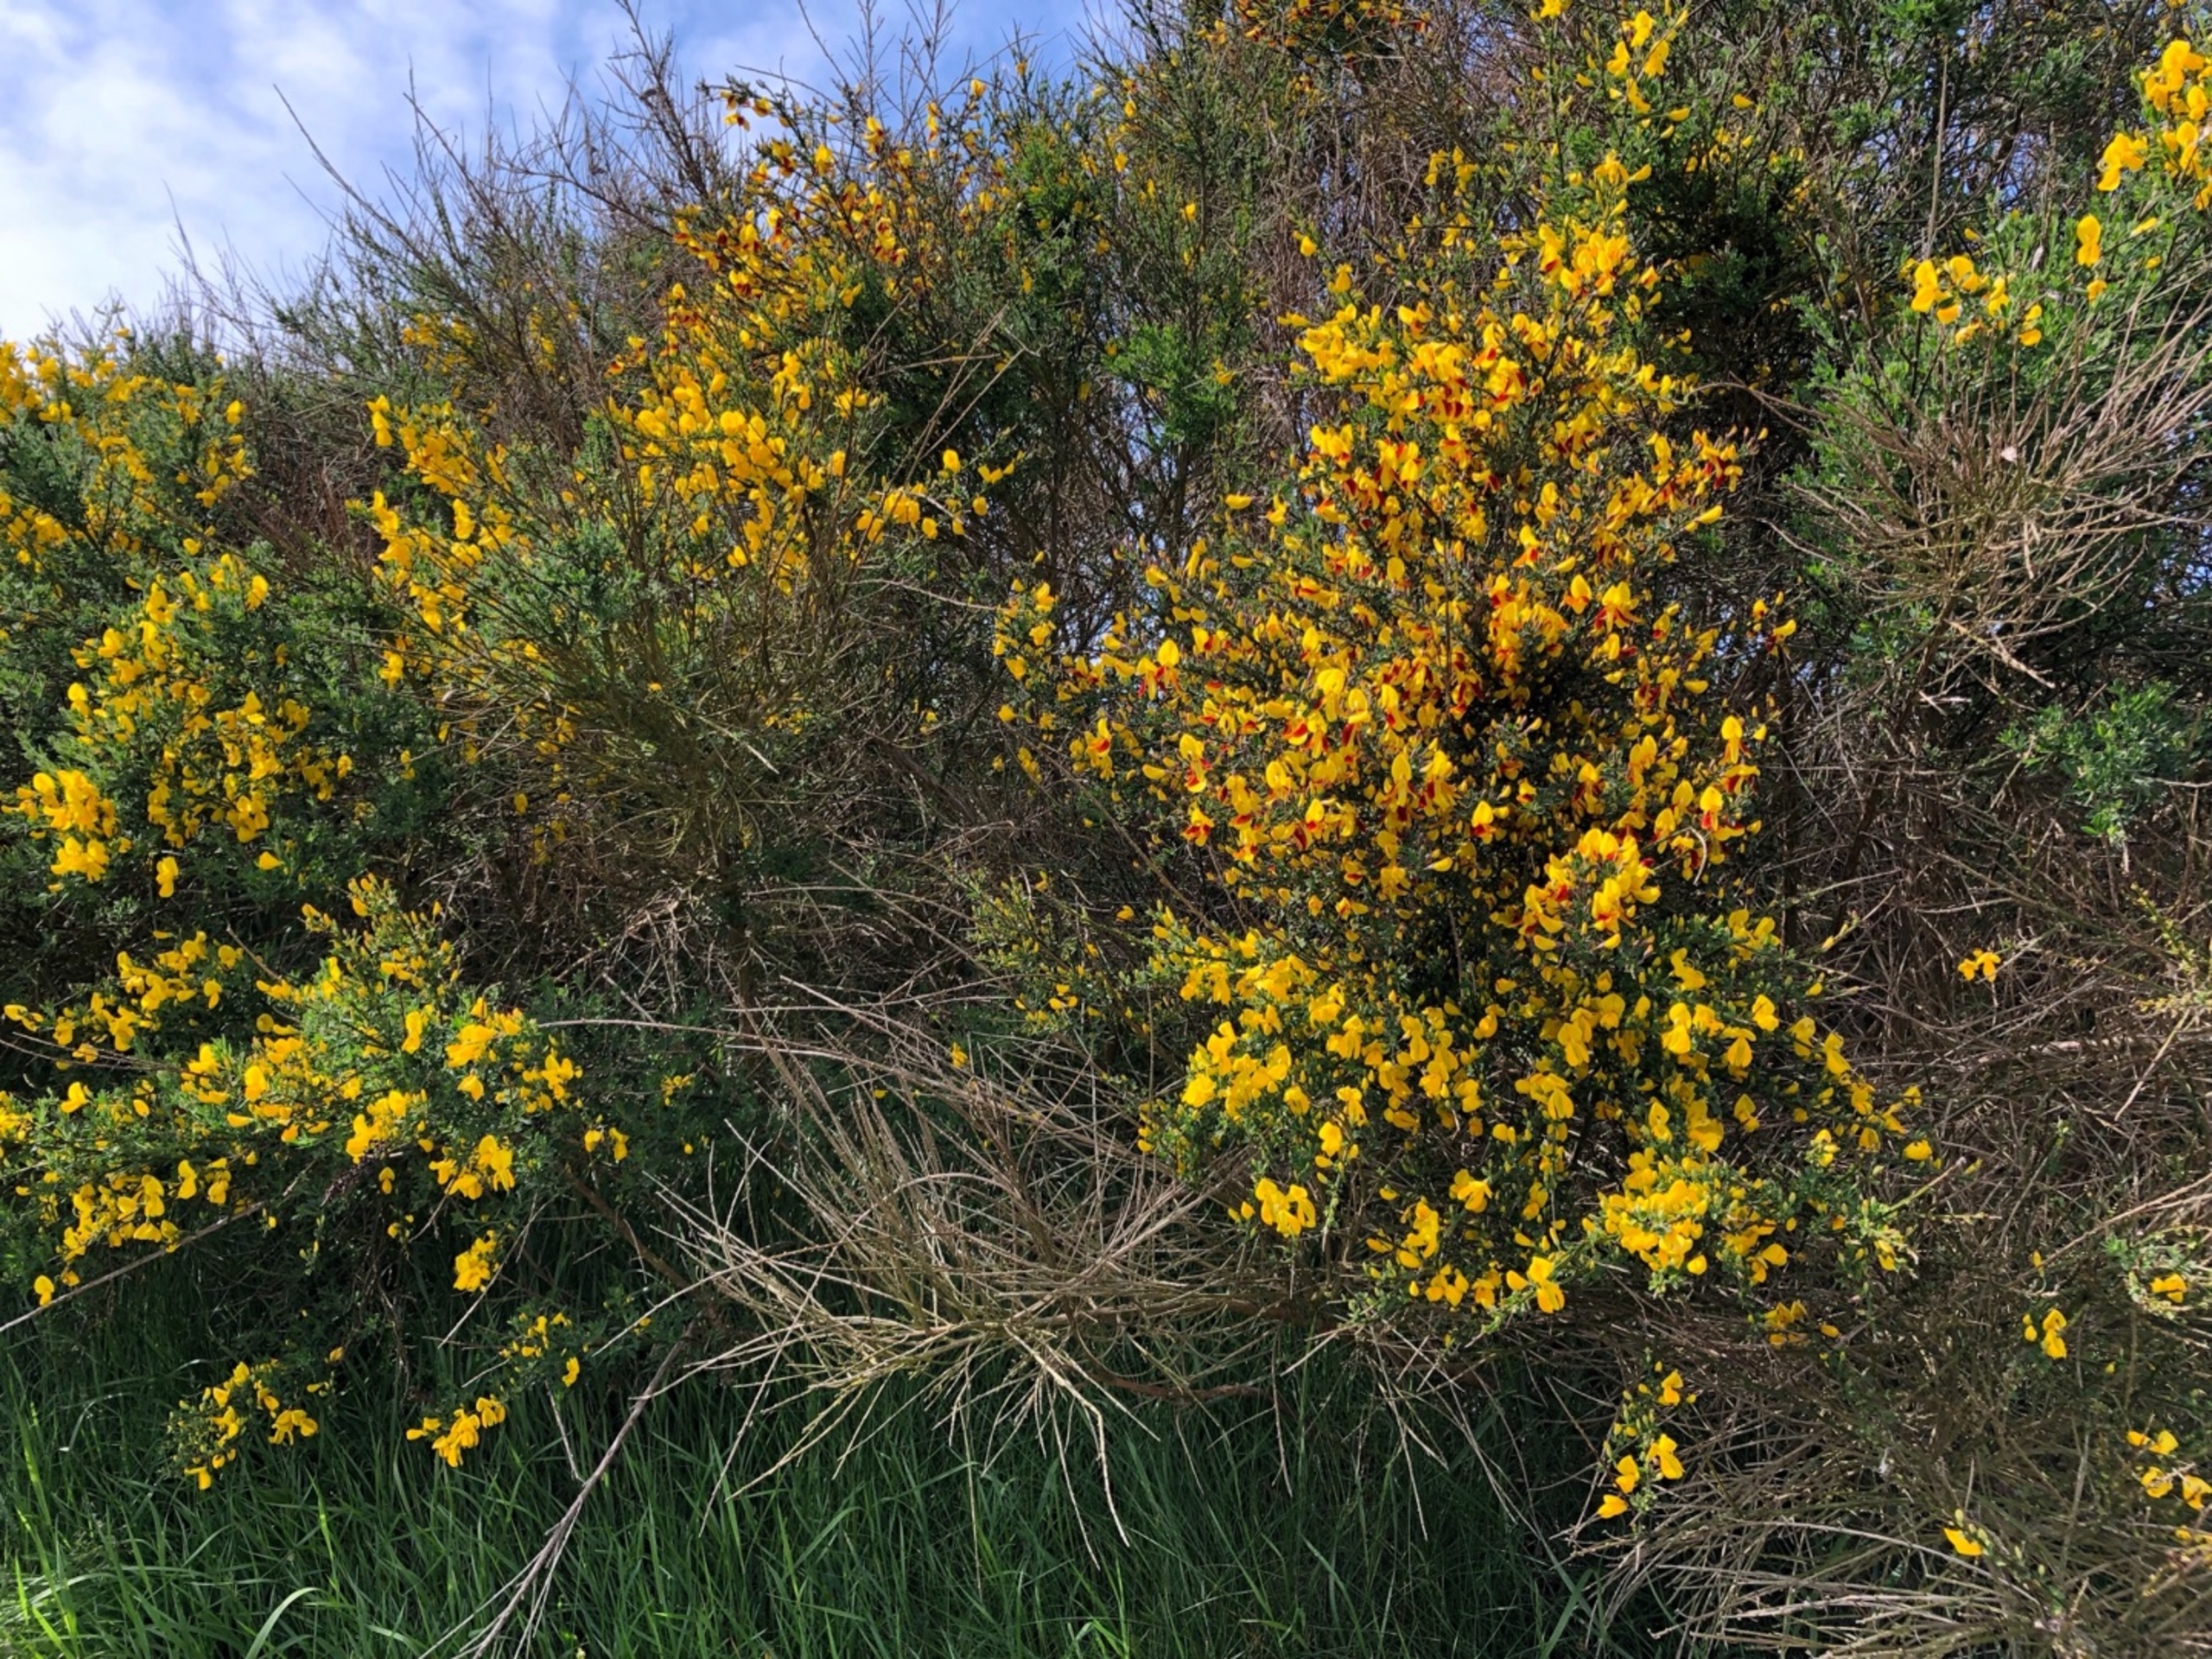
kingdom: Plantae
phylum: Tracheophyta
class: Magnoliopsida
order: Fabales
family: Fabaceae
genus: Cytisus
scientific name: Cytisus scoparius
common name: Almindelig gyvel
